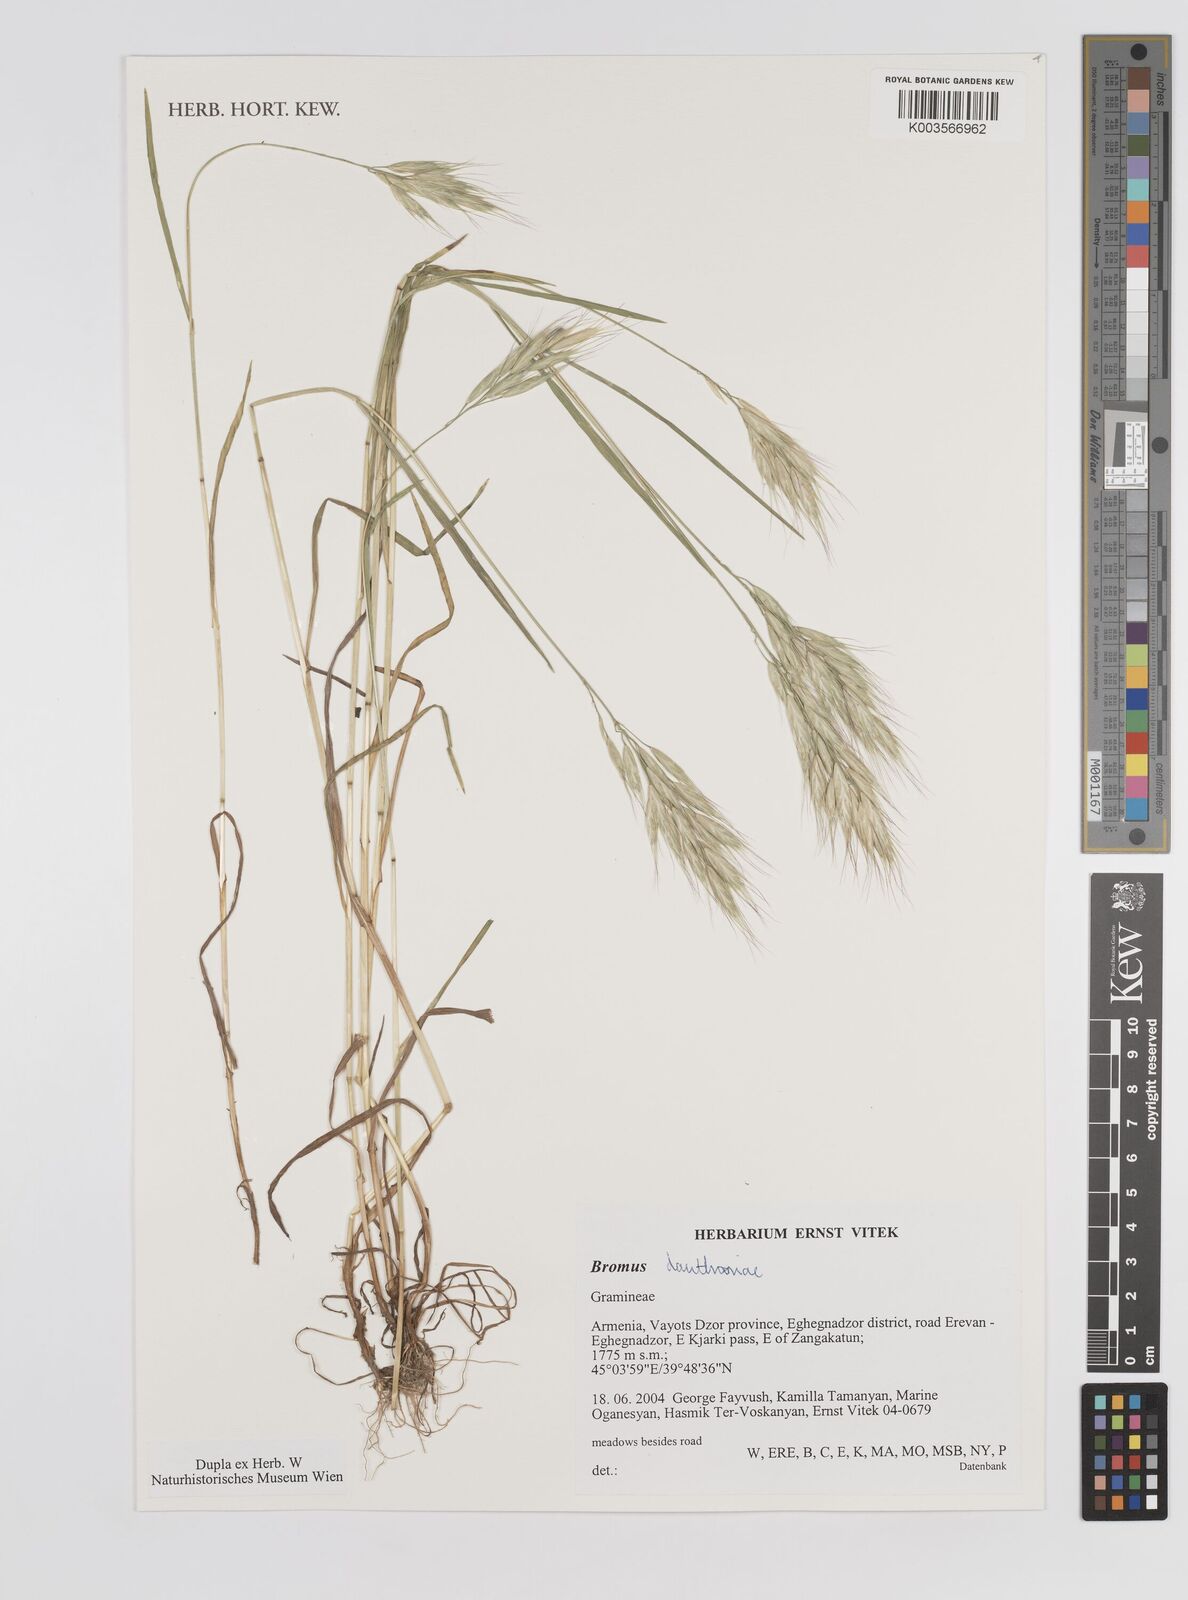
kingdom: Plantae
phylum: Tracheophyta
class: Liliopsida
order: Poales
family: Poaceae
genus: Bromus
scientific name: Bromus danthoniae
